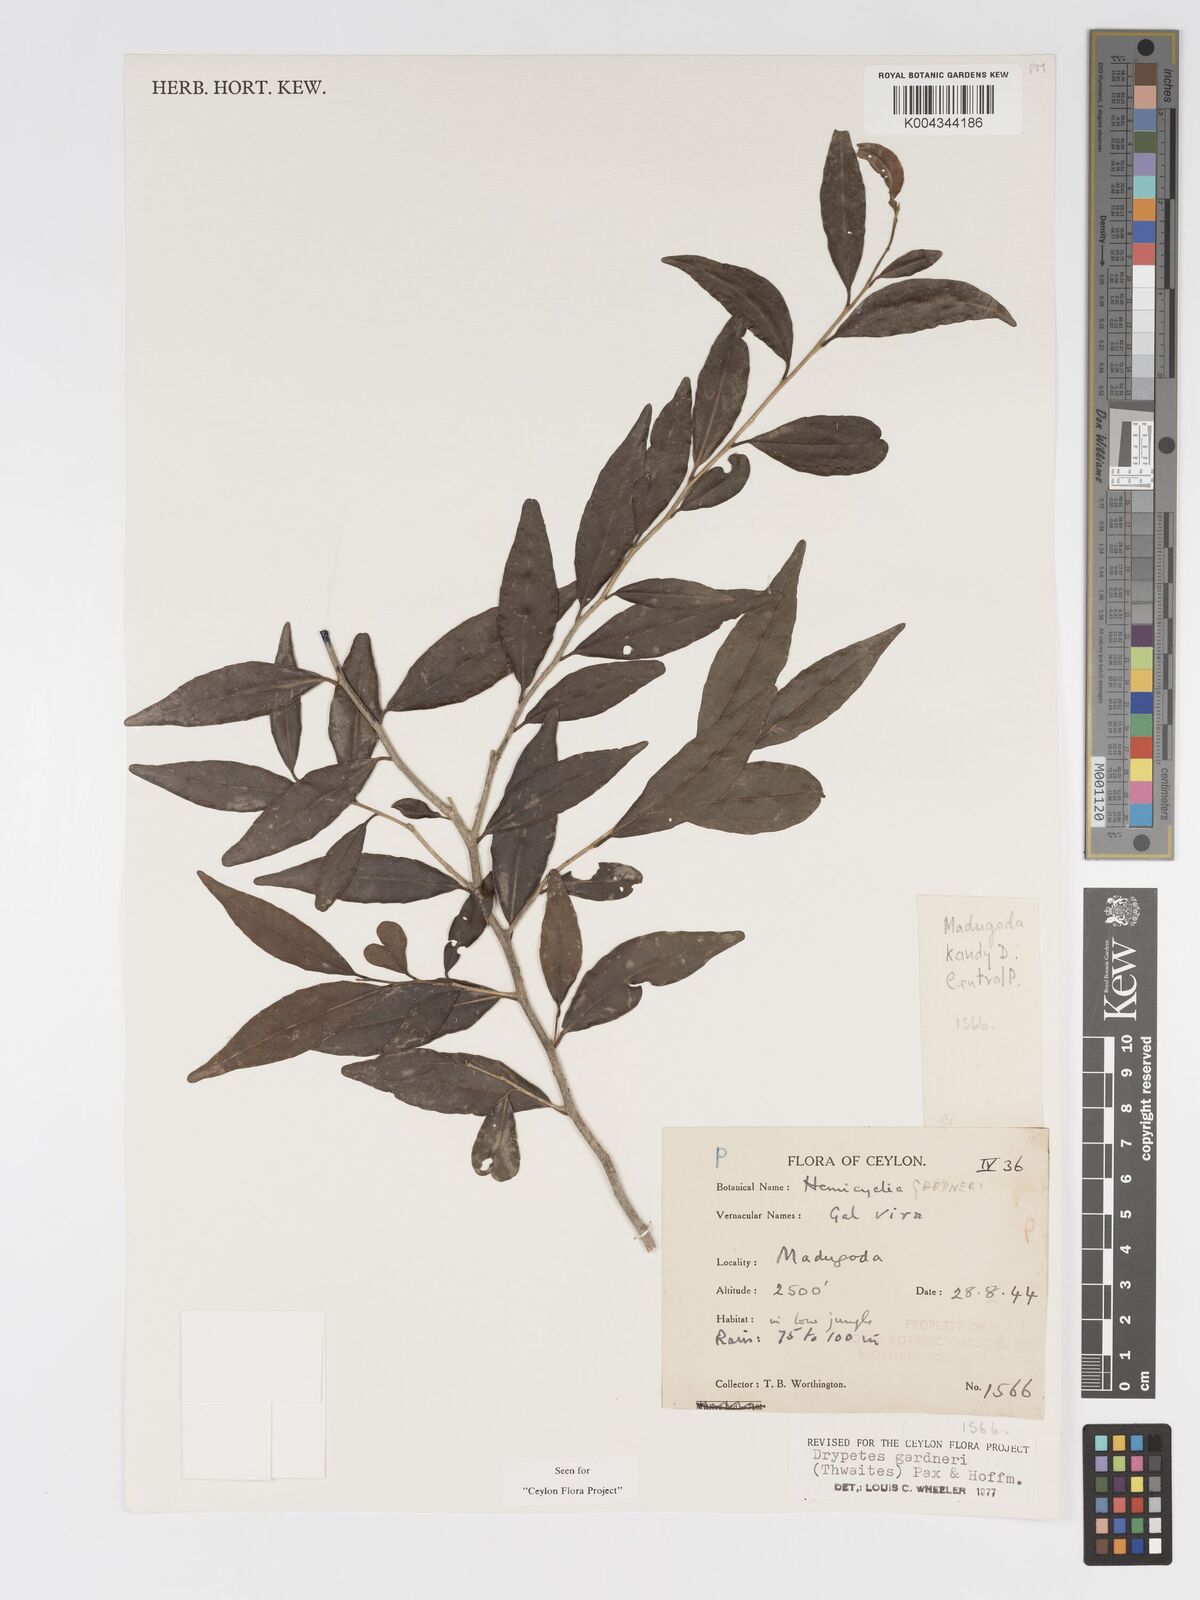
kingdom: Plantae
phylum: Tracheophyta
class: Magnoliopsida
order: Malpighiales
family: Putranjivaceae
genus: Drypetes
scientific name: Drypetes gardneri
